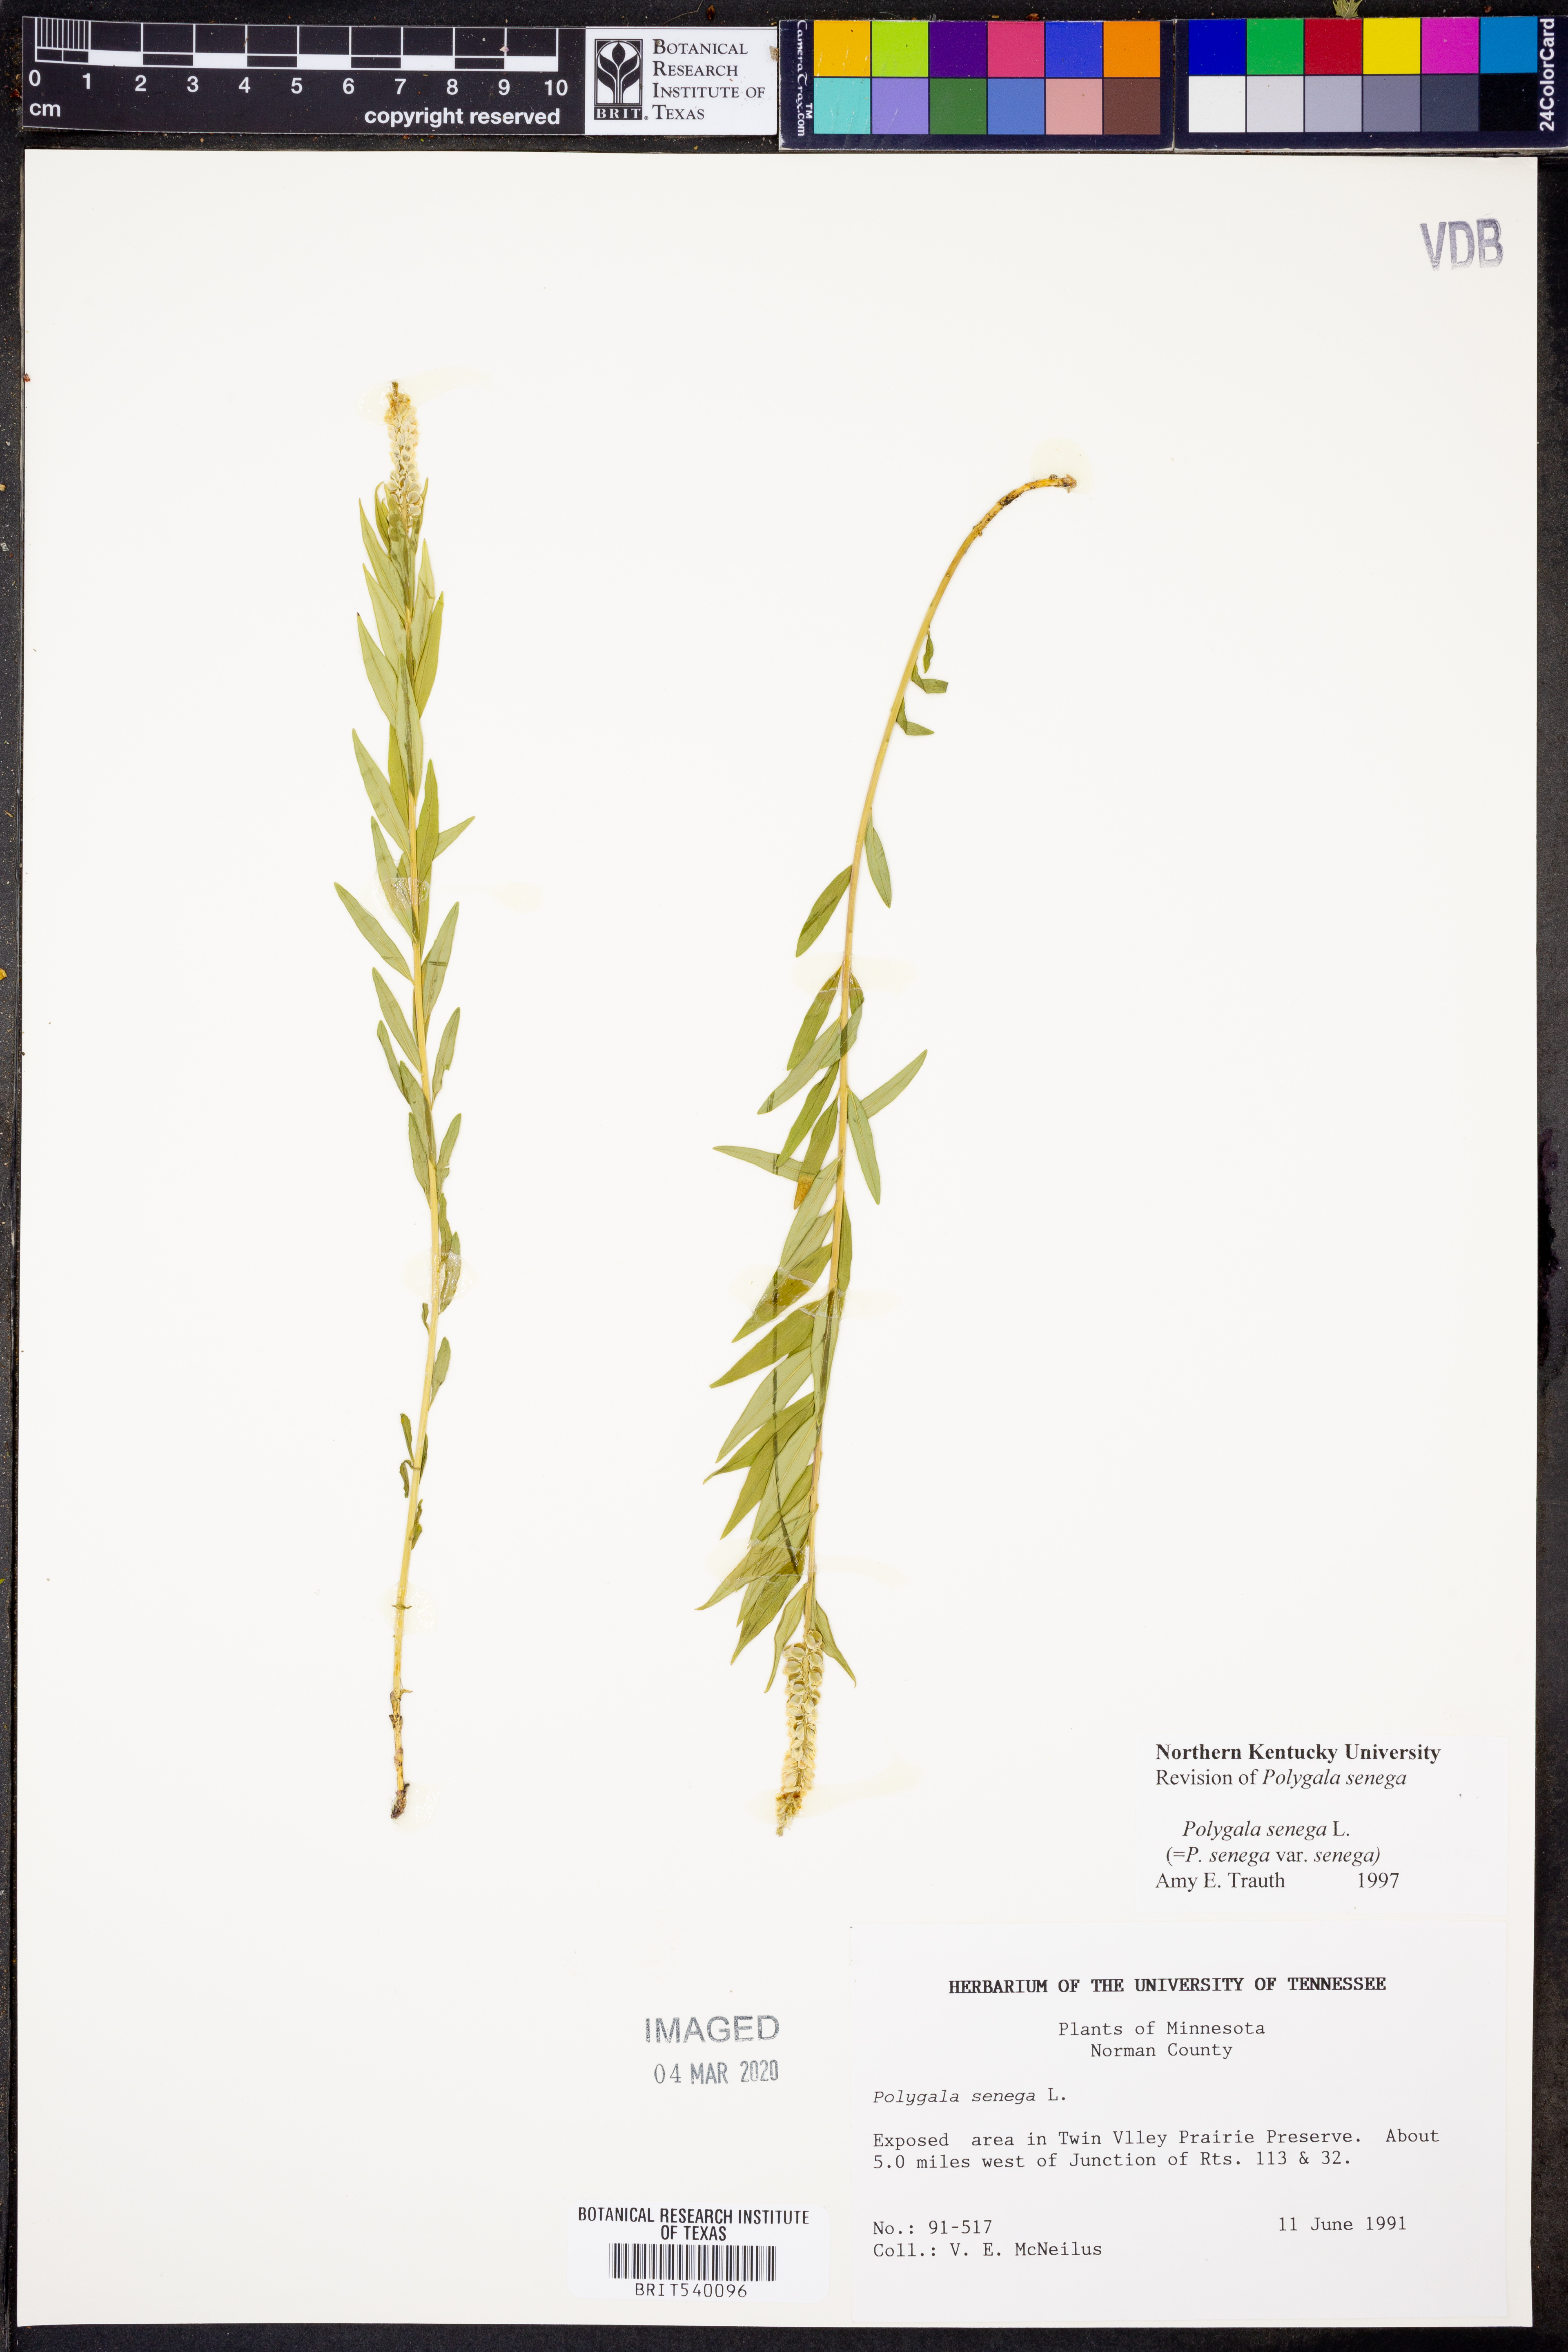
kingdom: Plantae
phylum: Tracheophyta
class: Magnoliopsida
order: Fabales
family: Polygalaceae
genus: Polygala
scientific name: Polygala senega
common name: Seneca snakeroot
